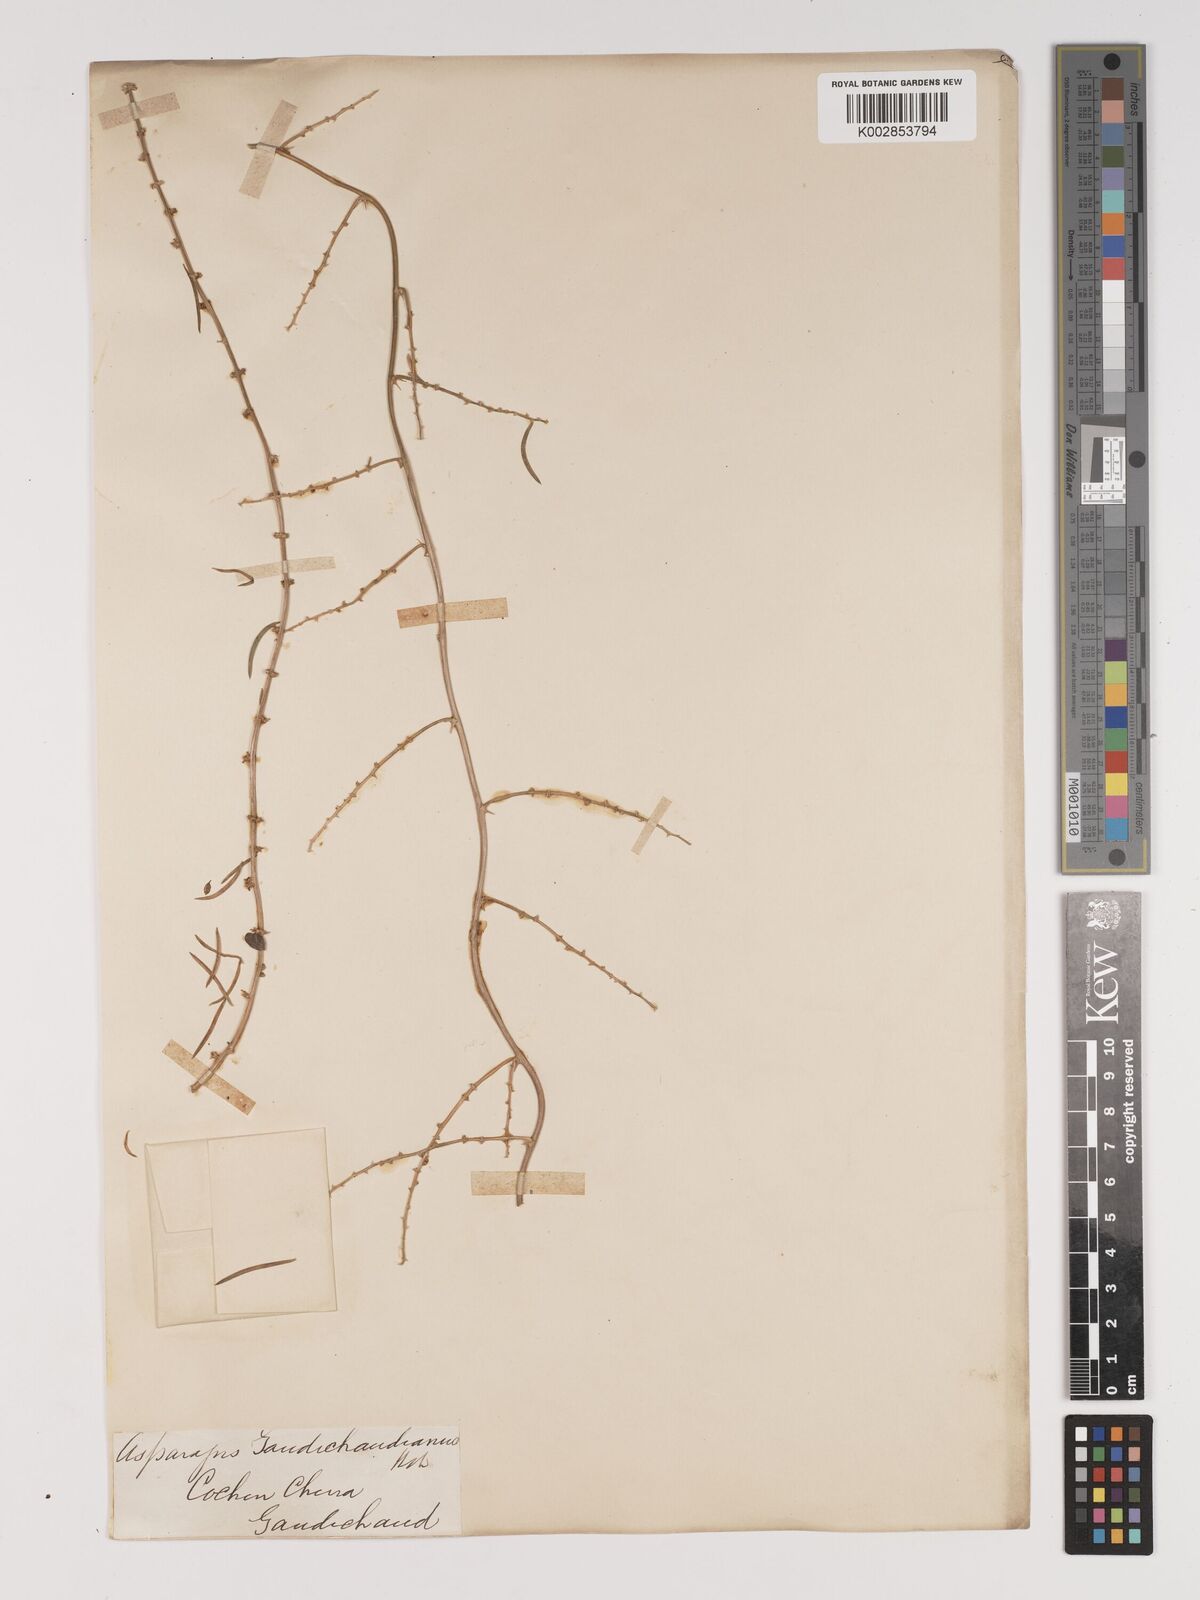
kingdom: Plantae
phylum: Tracheophyta
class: Liliopsida
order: Asparagales
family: Asparagaceae
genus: Asparagus
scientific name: Asparagus cochinchinensis
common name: Chinese asparagus
